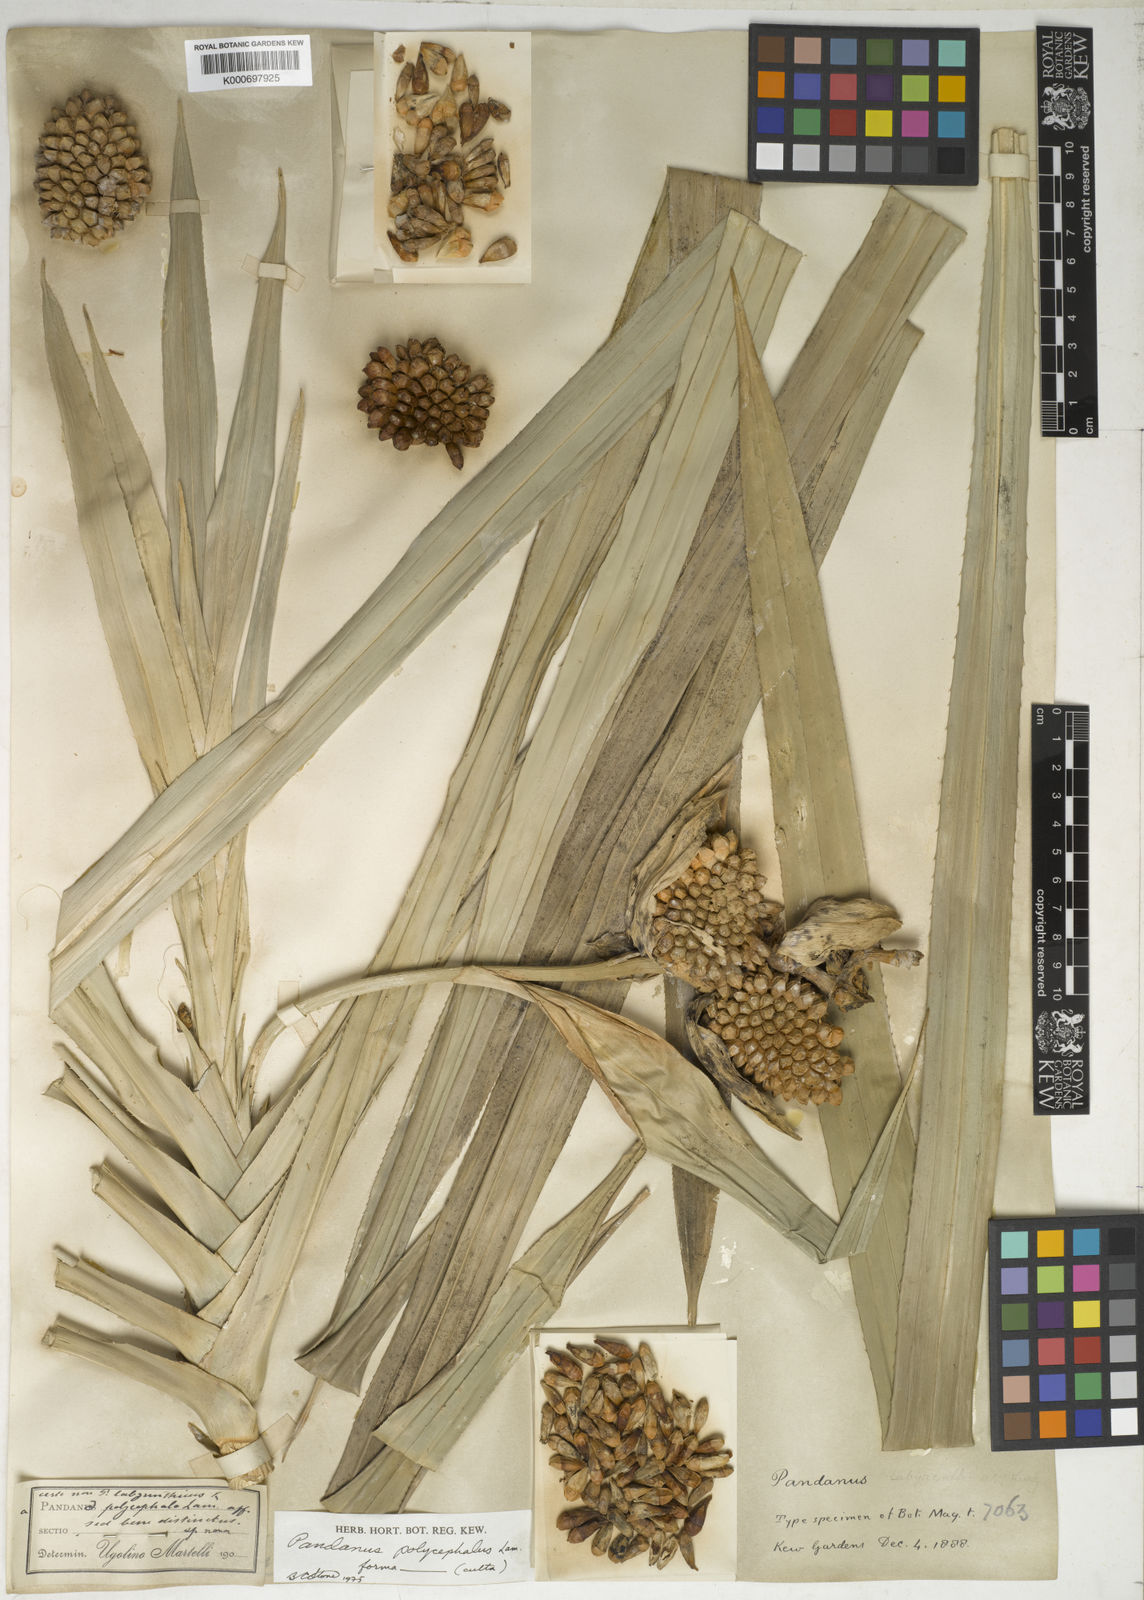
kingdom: Plantae
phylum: Tracheophyta
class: Liliopsida
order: Pandanales
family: Pandanaceae
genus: Pandanus
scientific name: Pandanus polycephalus
